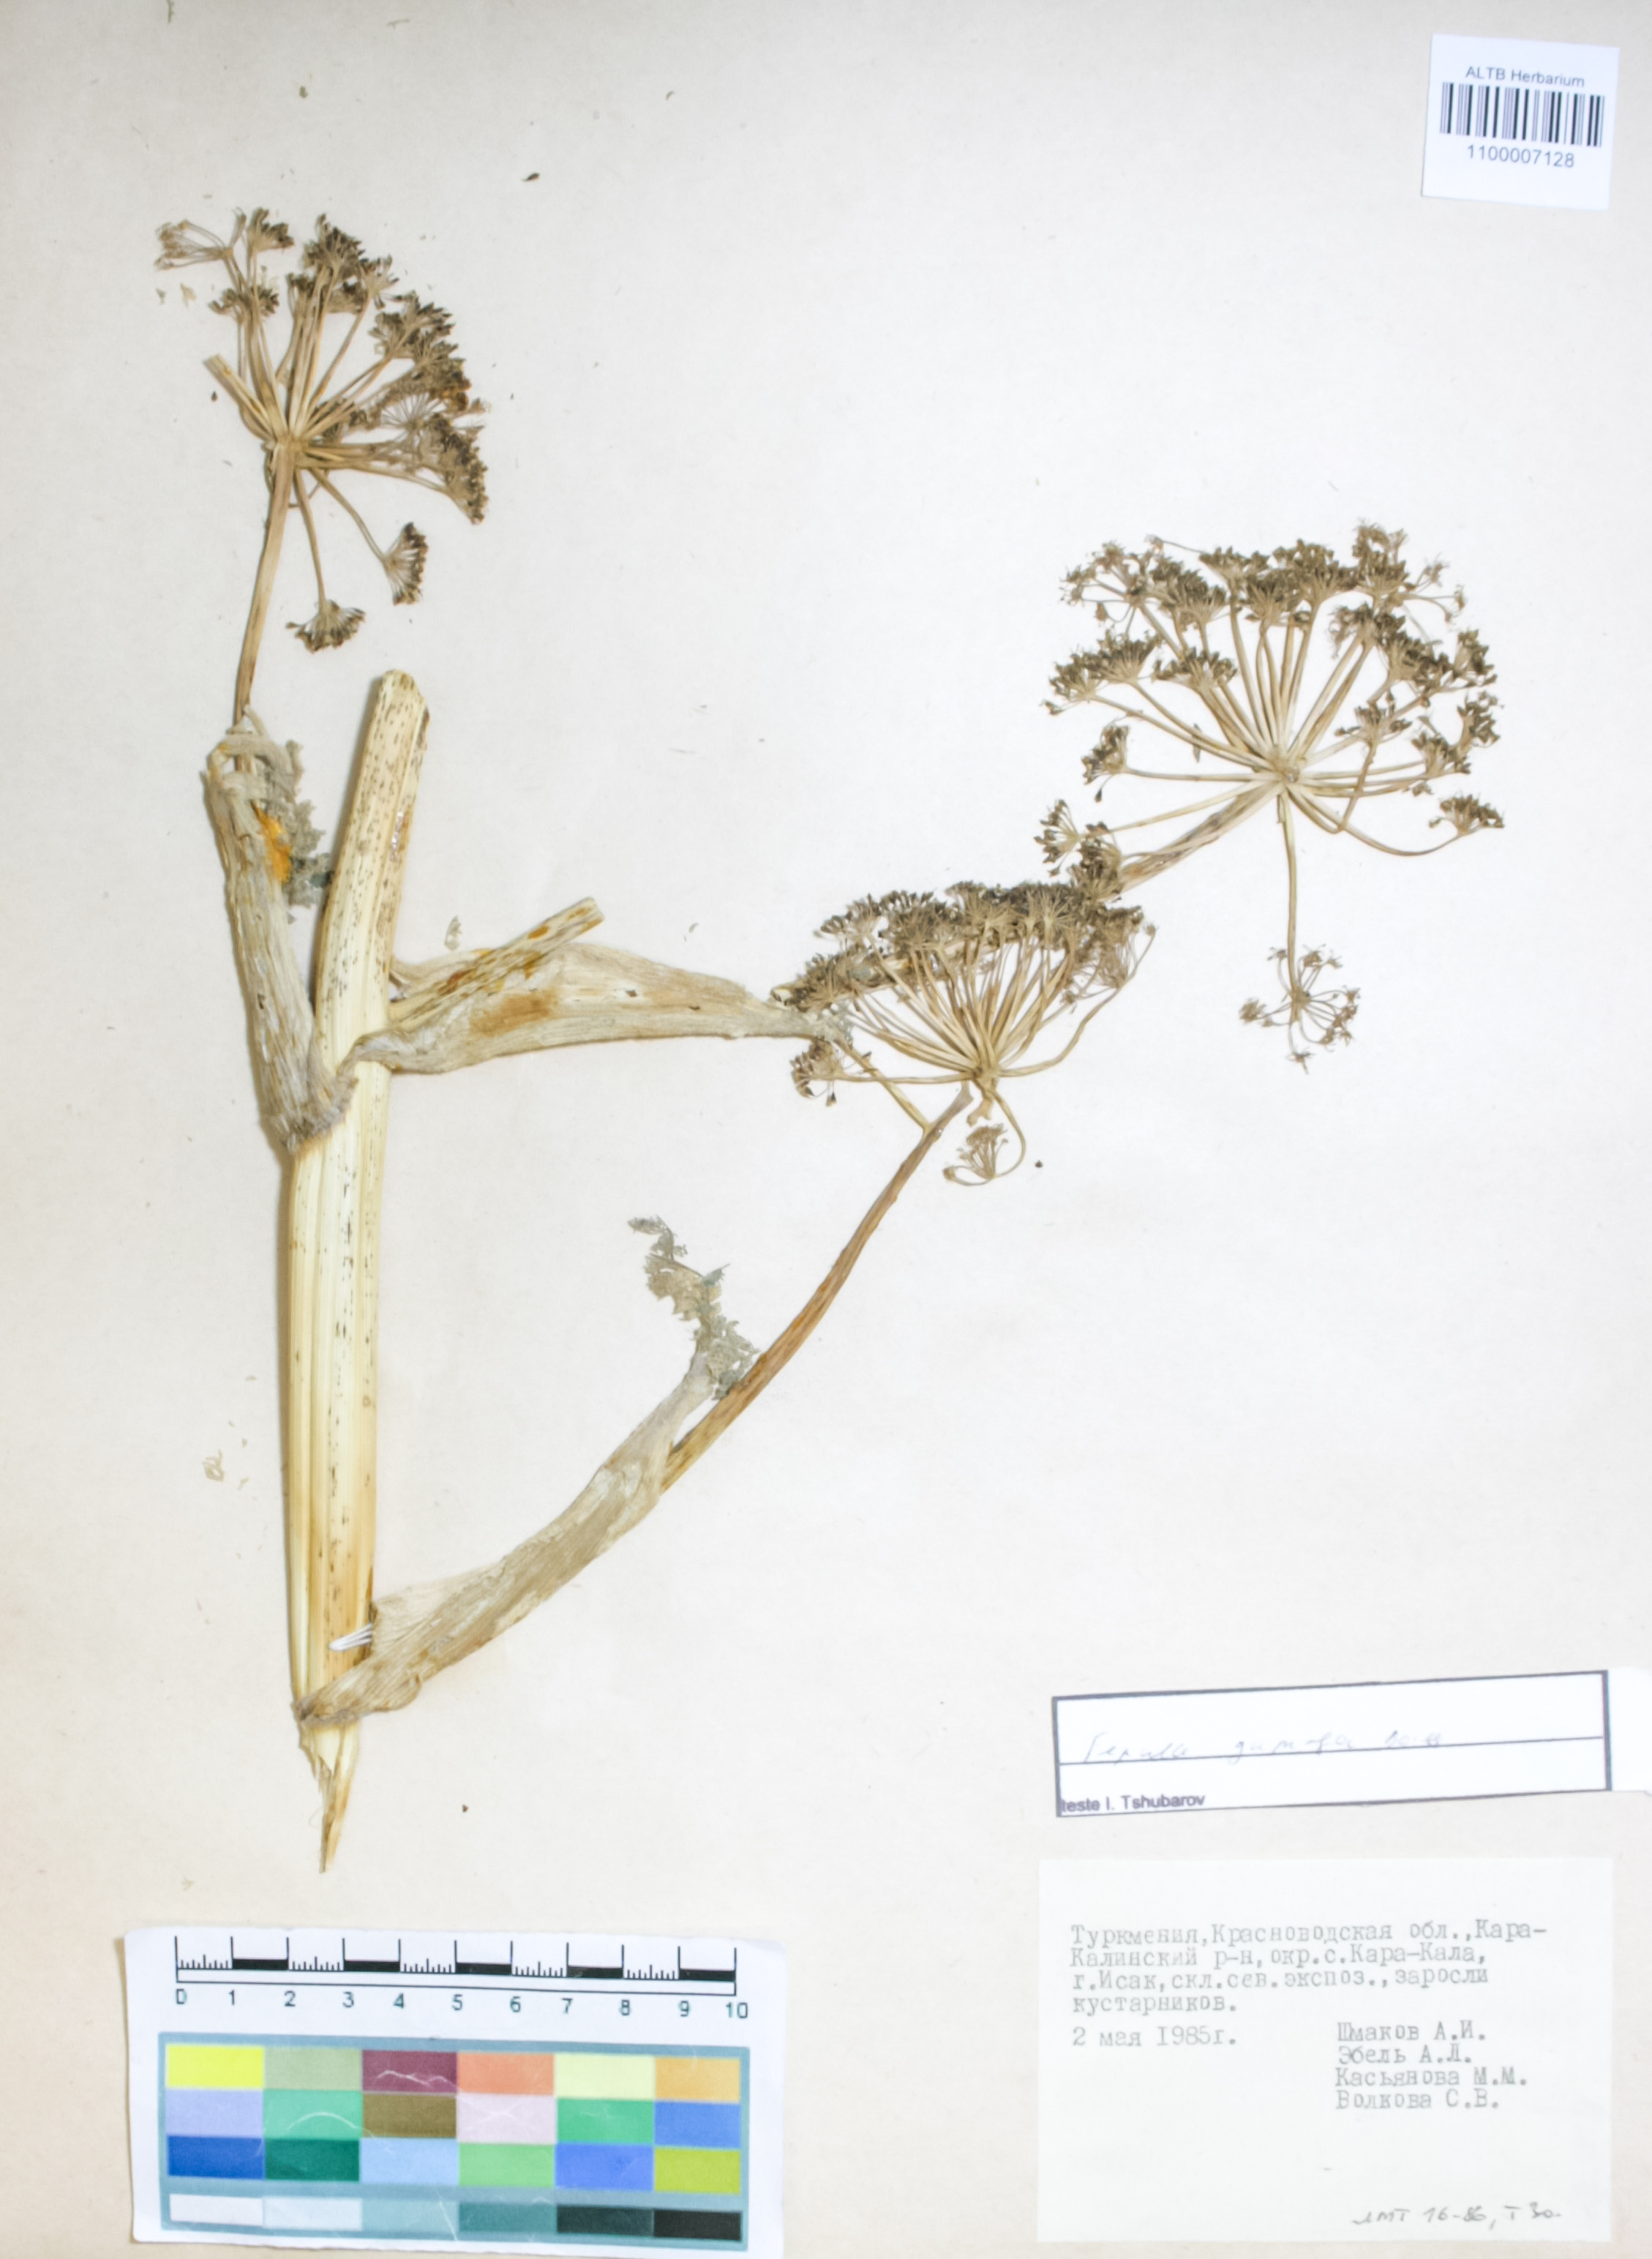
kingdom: Plantae
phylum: Tracheophyta
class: Magnoliopsida
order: Apiales
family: Apiaceae
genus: Ferula
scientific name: Ferula gummosa
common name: Galbanum
